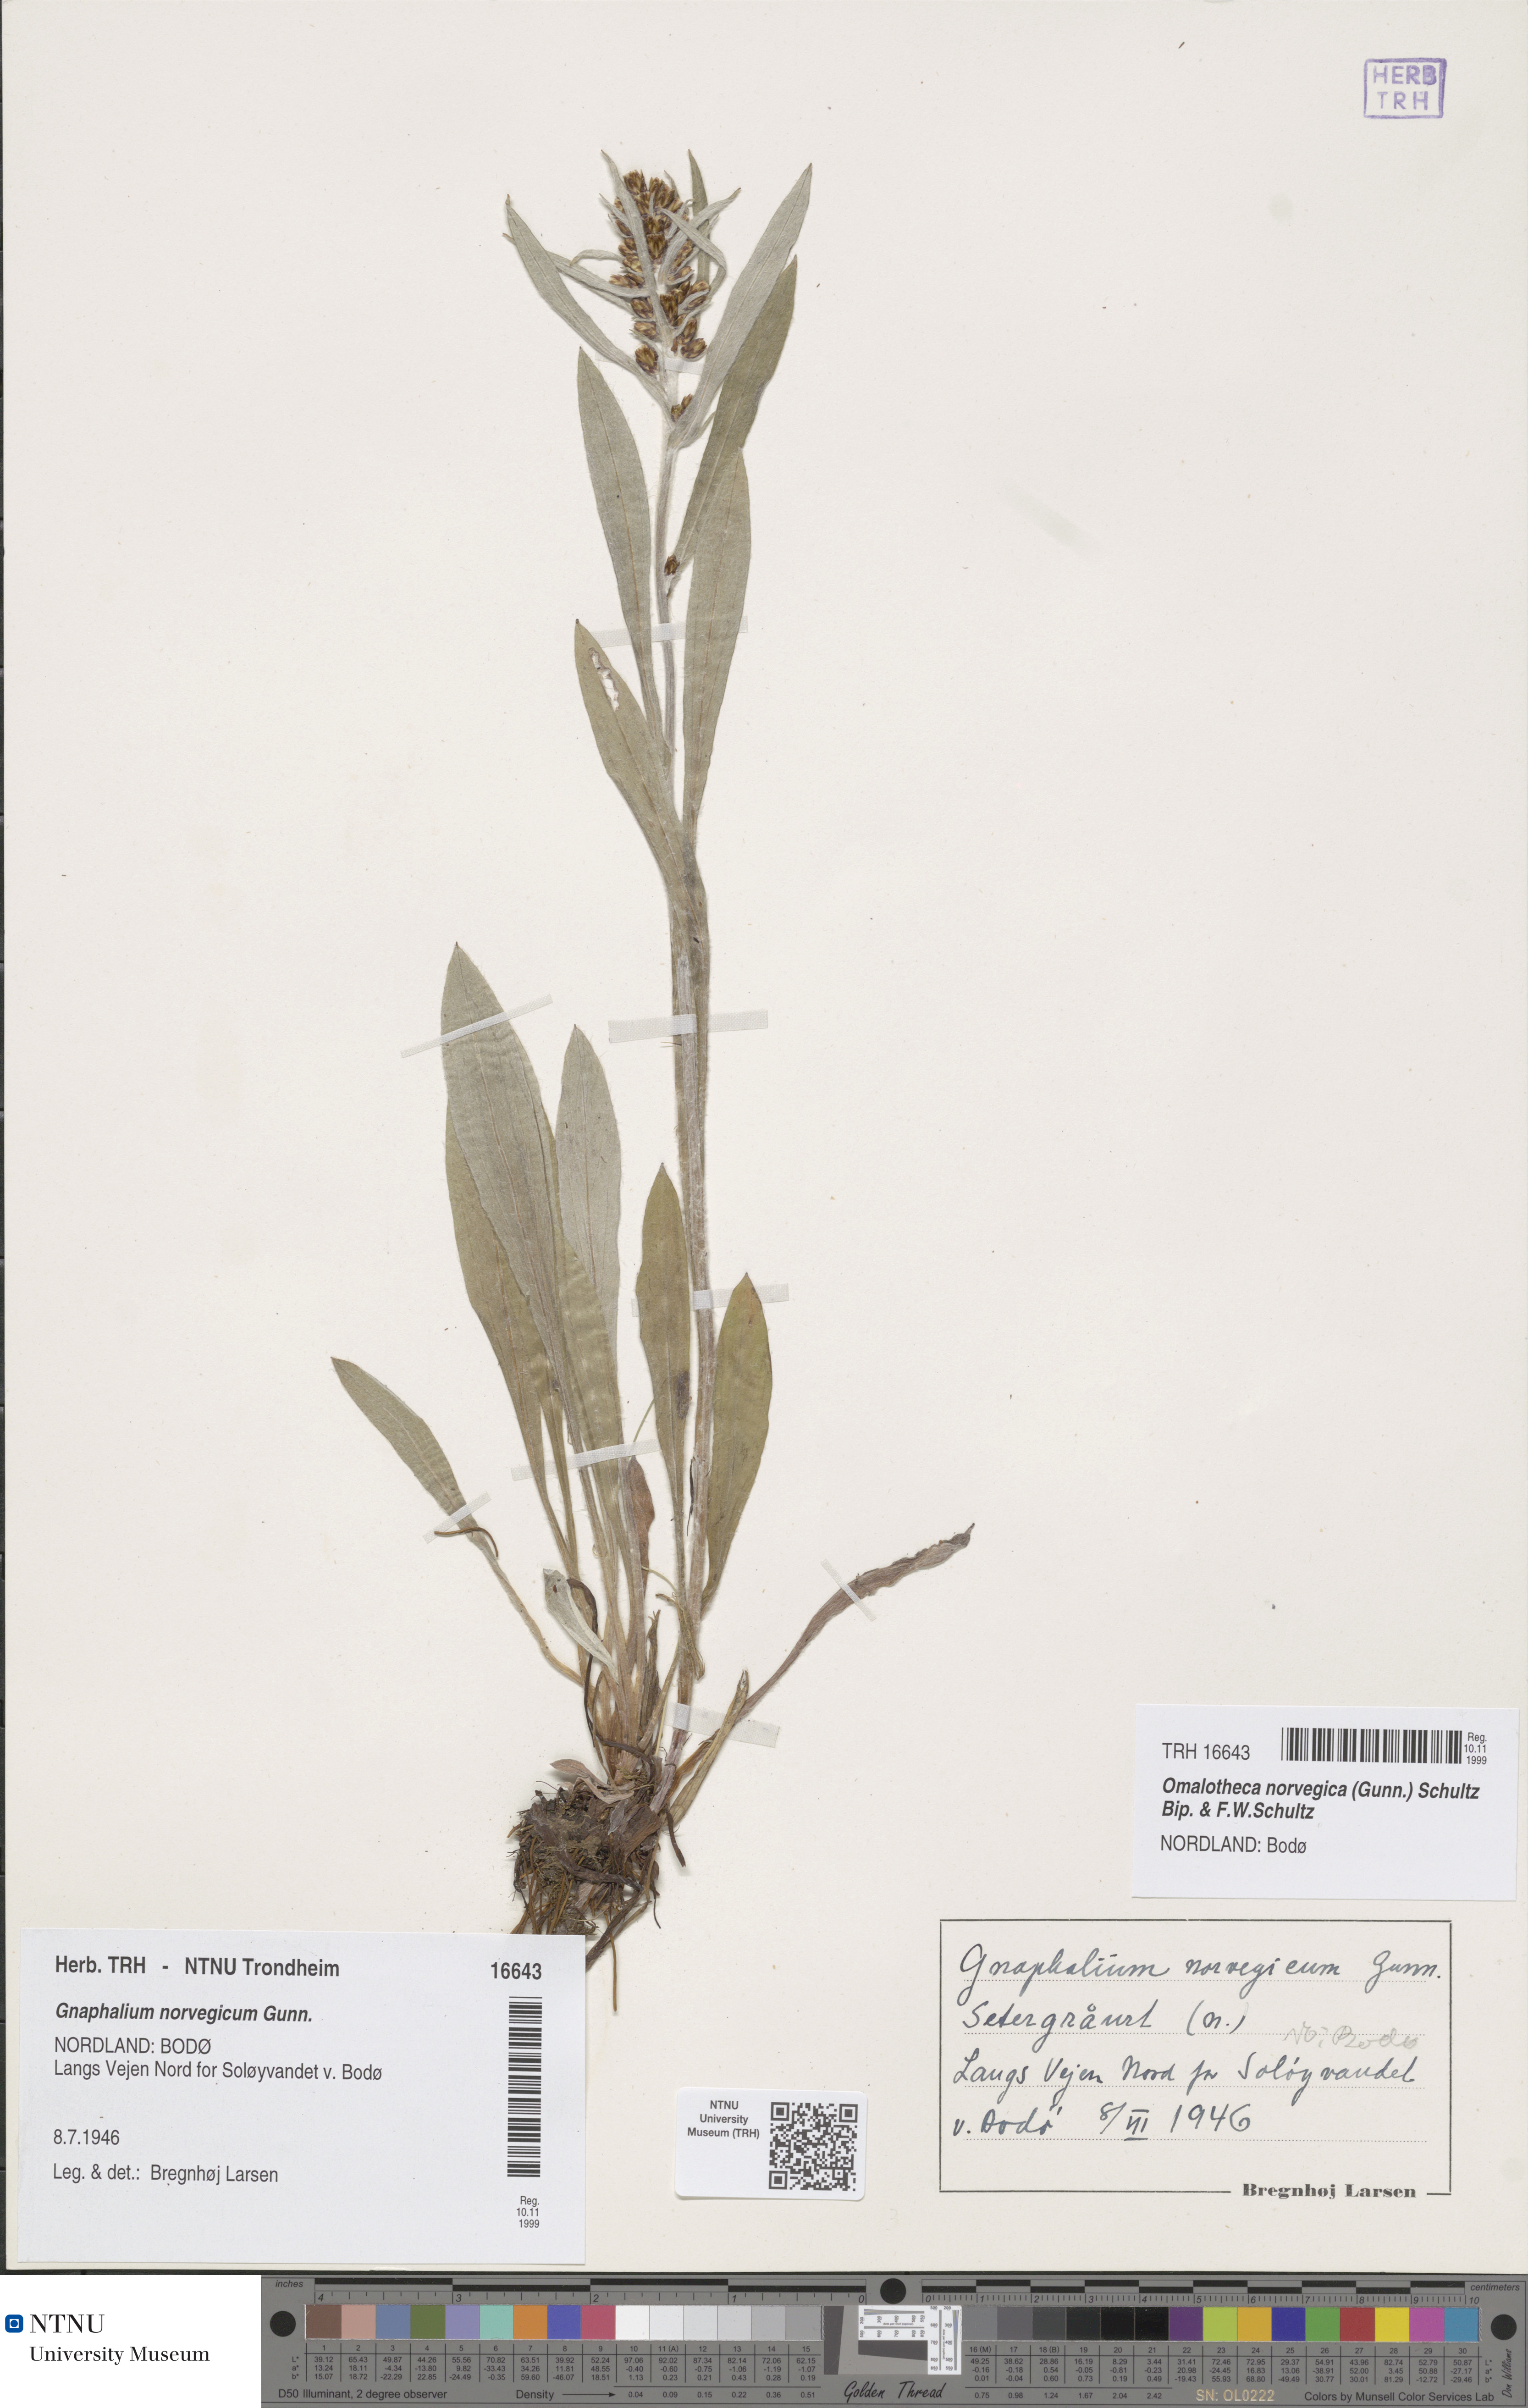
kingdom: Plantae
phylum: Tracheophyta
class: Magnoliopsida
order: Asterales
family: Asteraceae
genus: Omalotheca
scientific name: Omalotheca norvegica
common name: Norwegian arctic-cudweed
